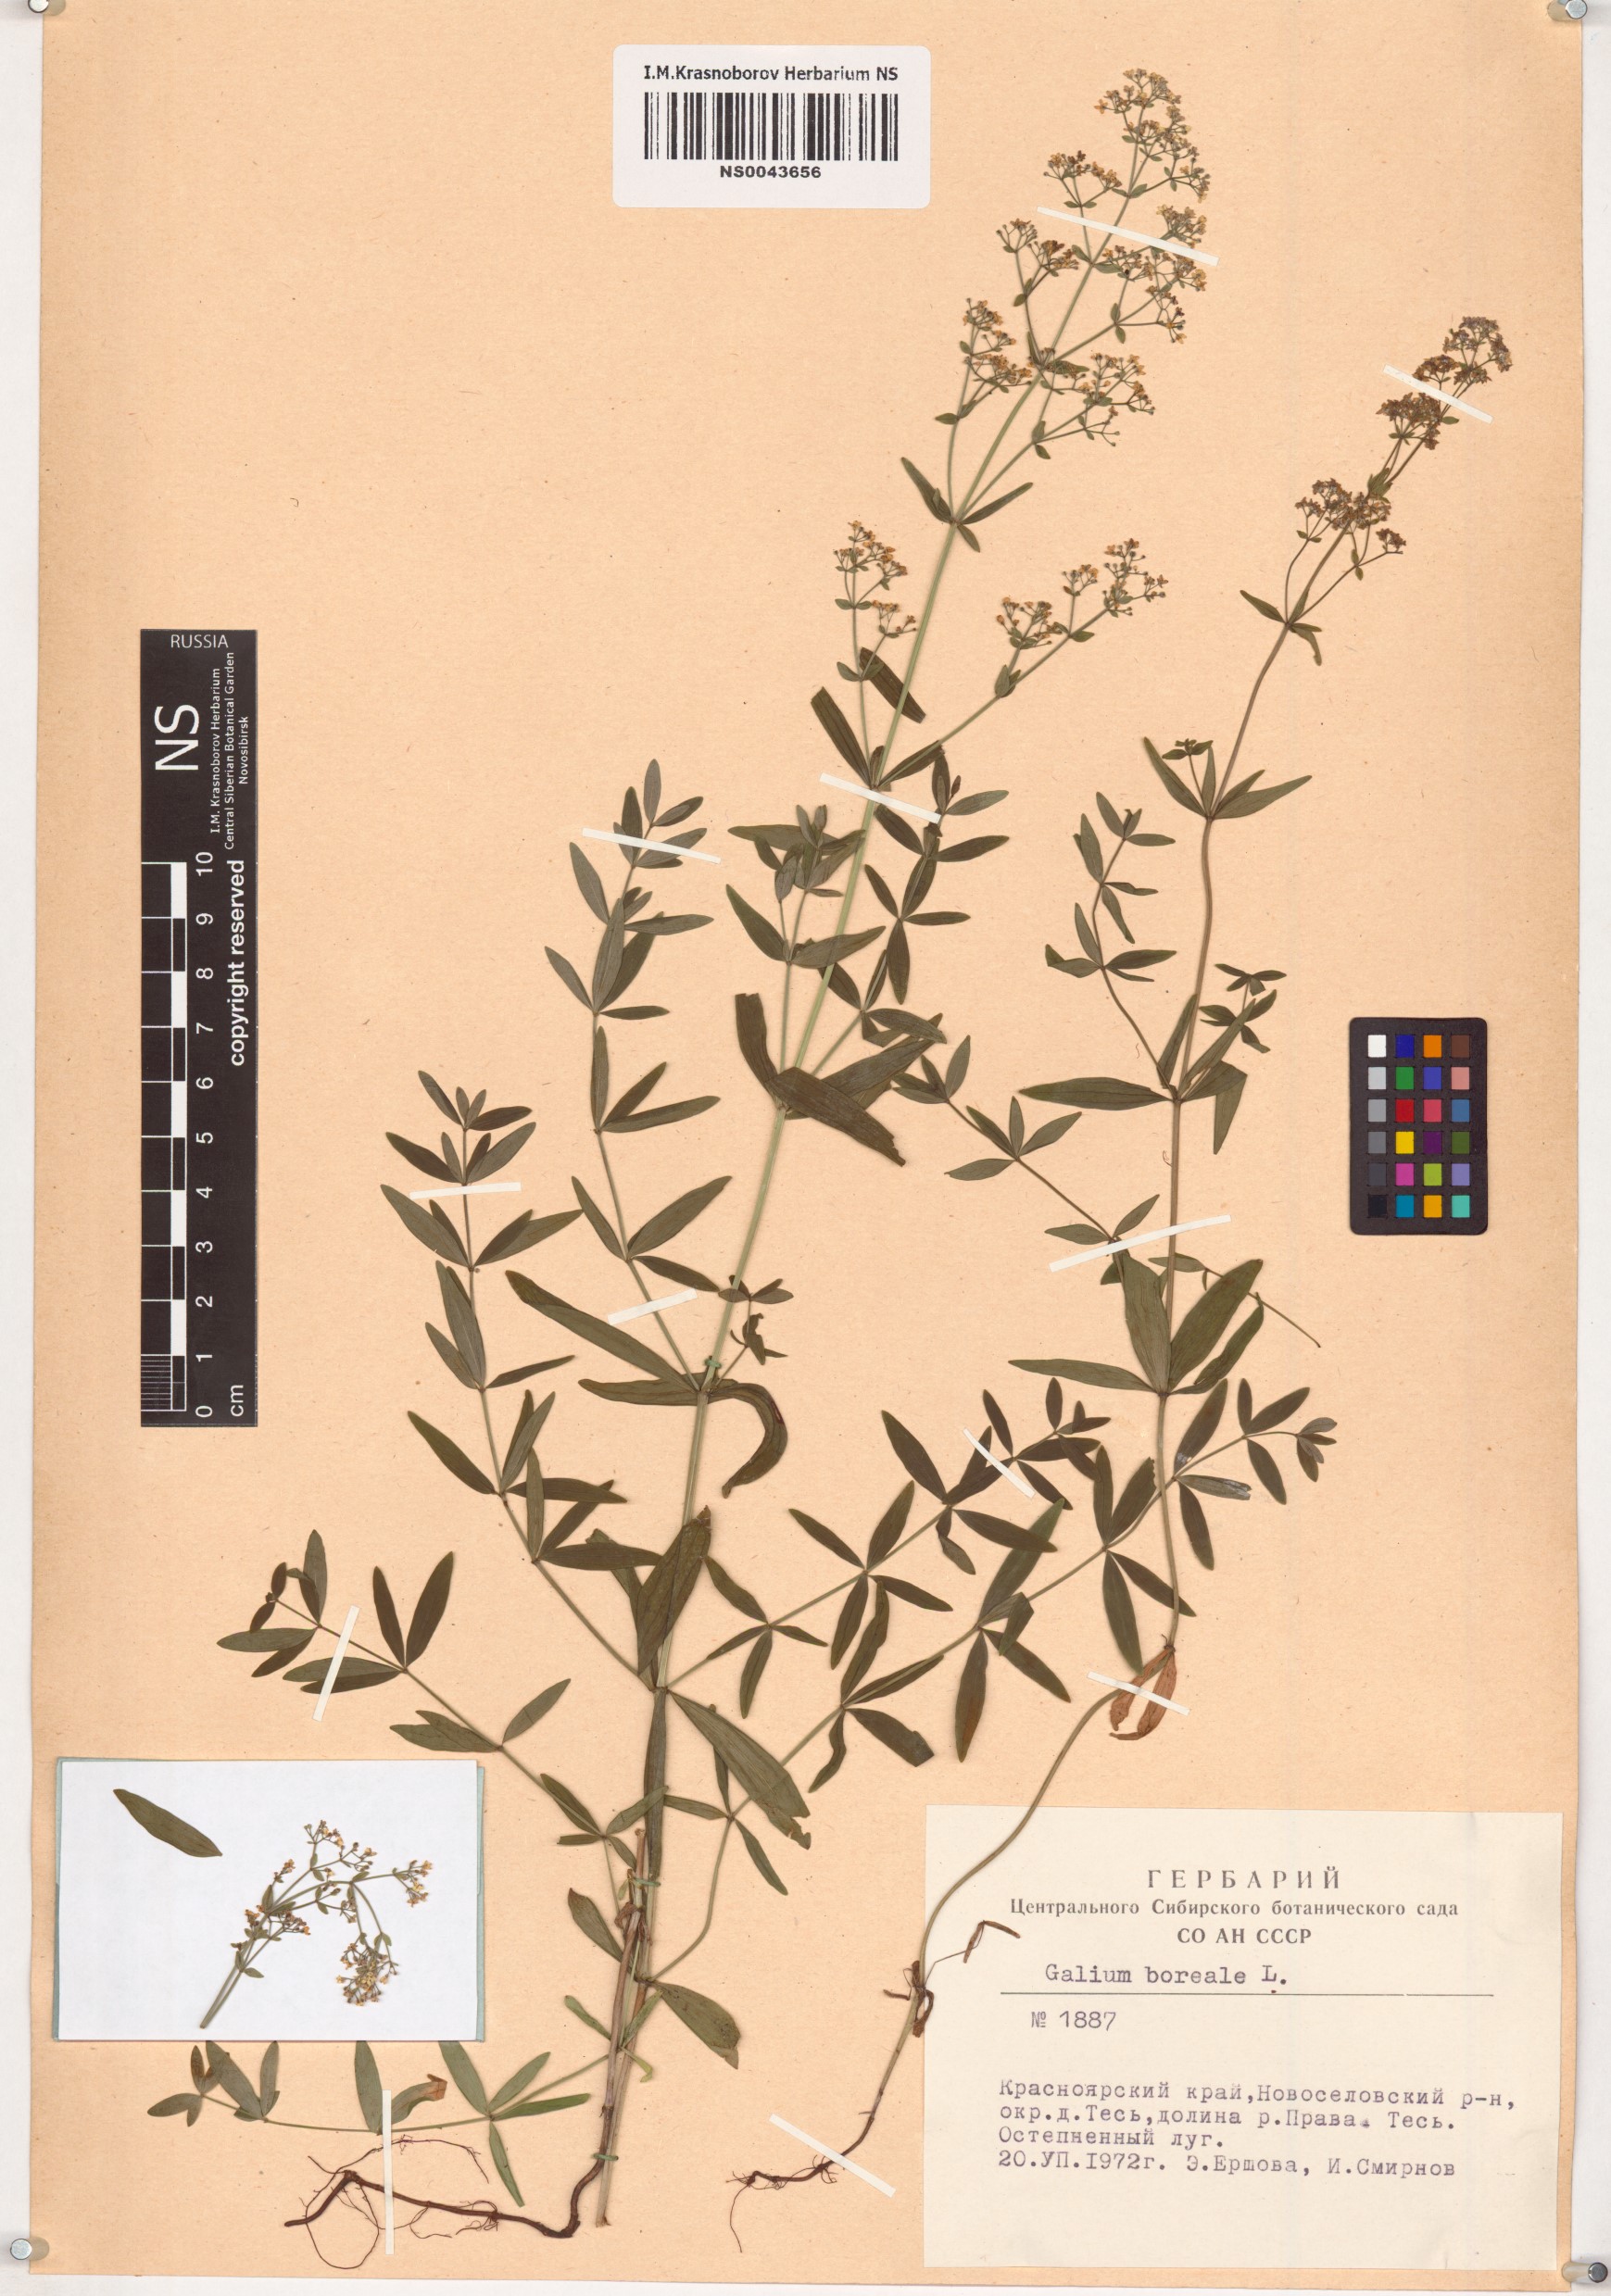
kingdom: Plantae
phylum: Tracheophyta
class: Magnoliopsida
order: Gentianales
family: Rubiaceae
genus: Galium
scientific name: Galium boreale
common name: Northern bedstraw
